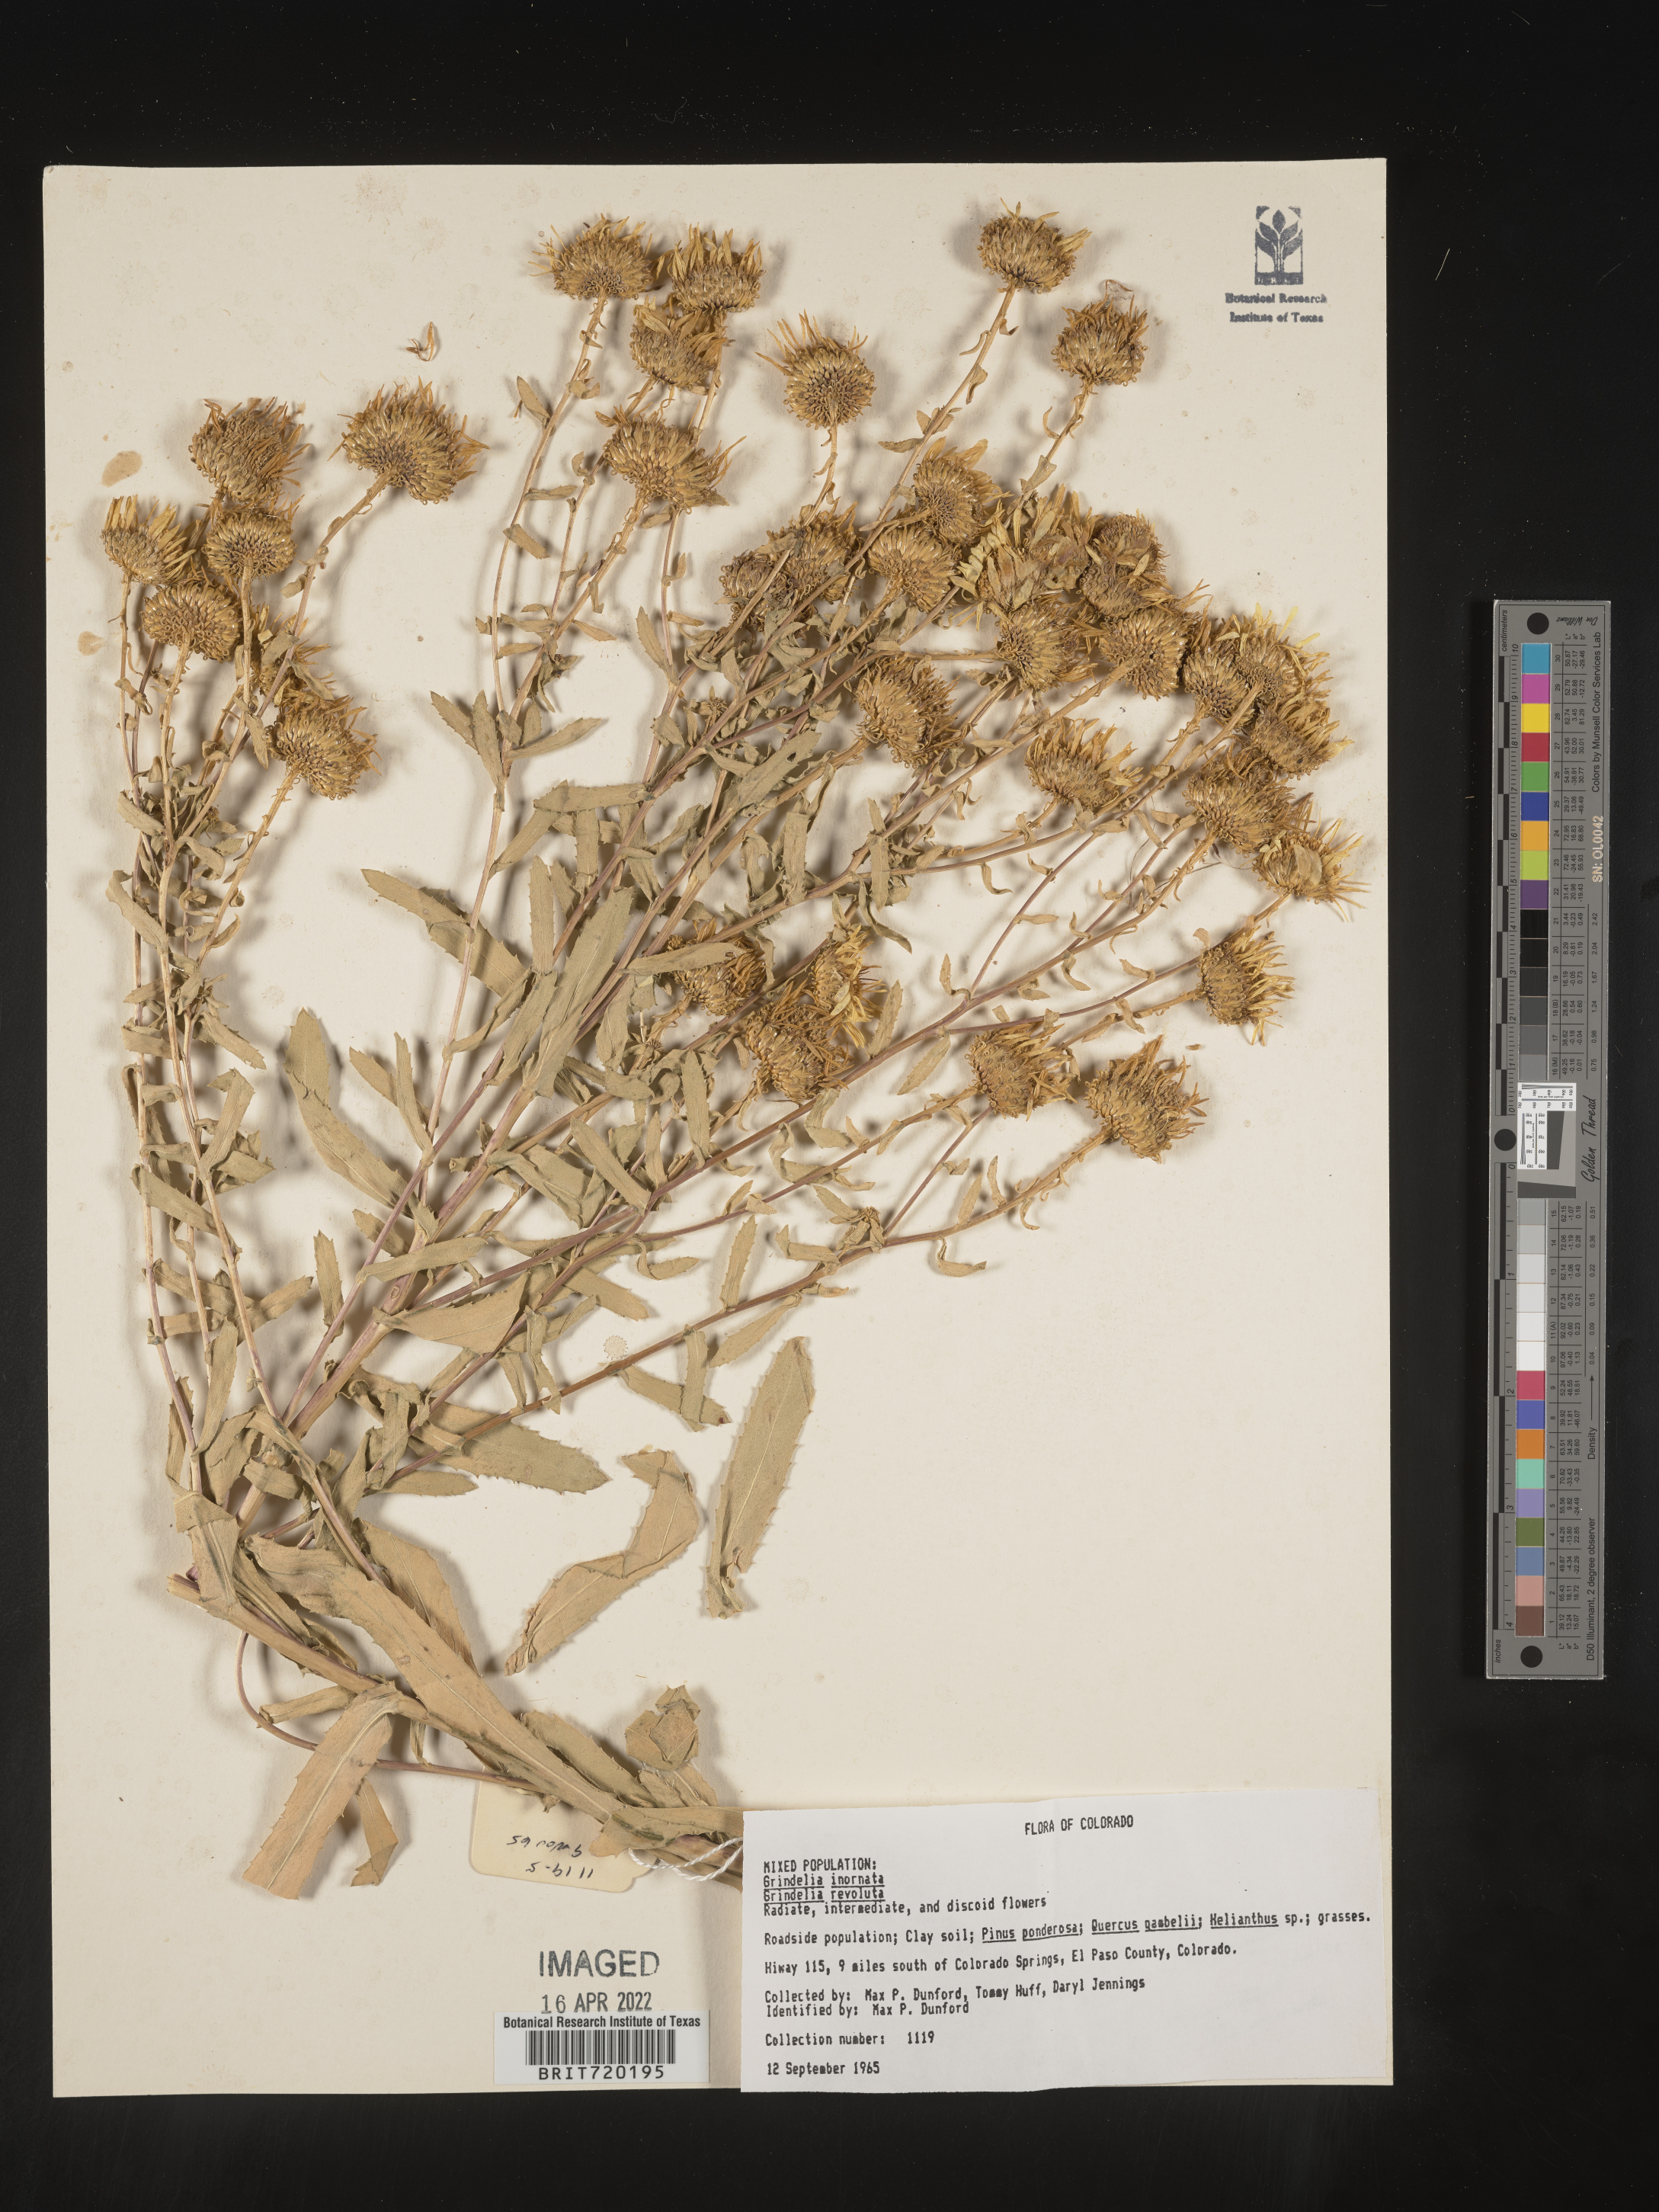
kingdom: Plantae
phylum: Tracheophyta
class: Magnoliopsida
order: Asterales
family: Asteraceae
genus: Grindelia
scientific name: Grindelia hirsutula
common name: Hairy gumweed
